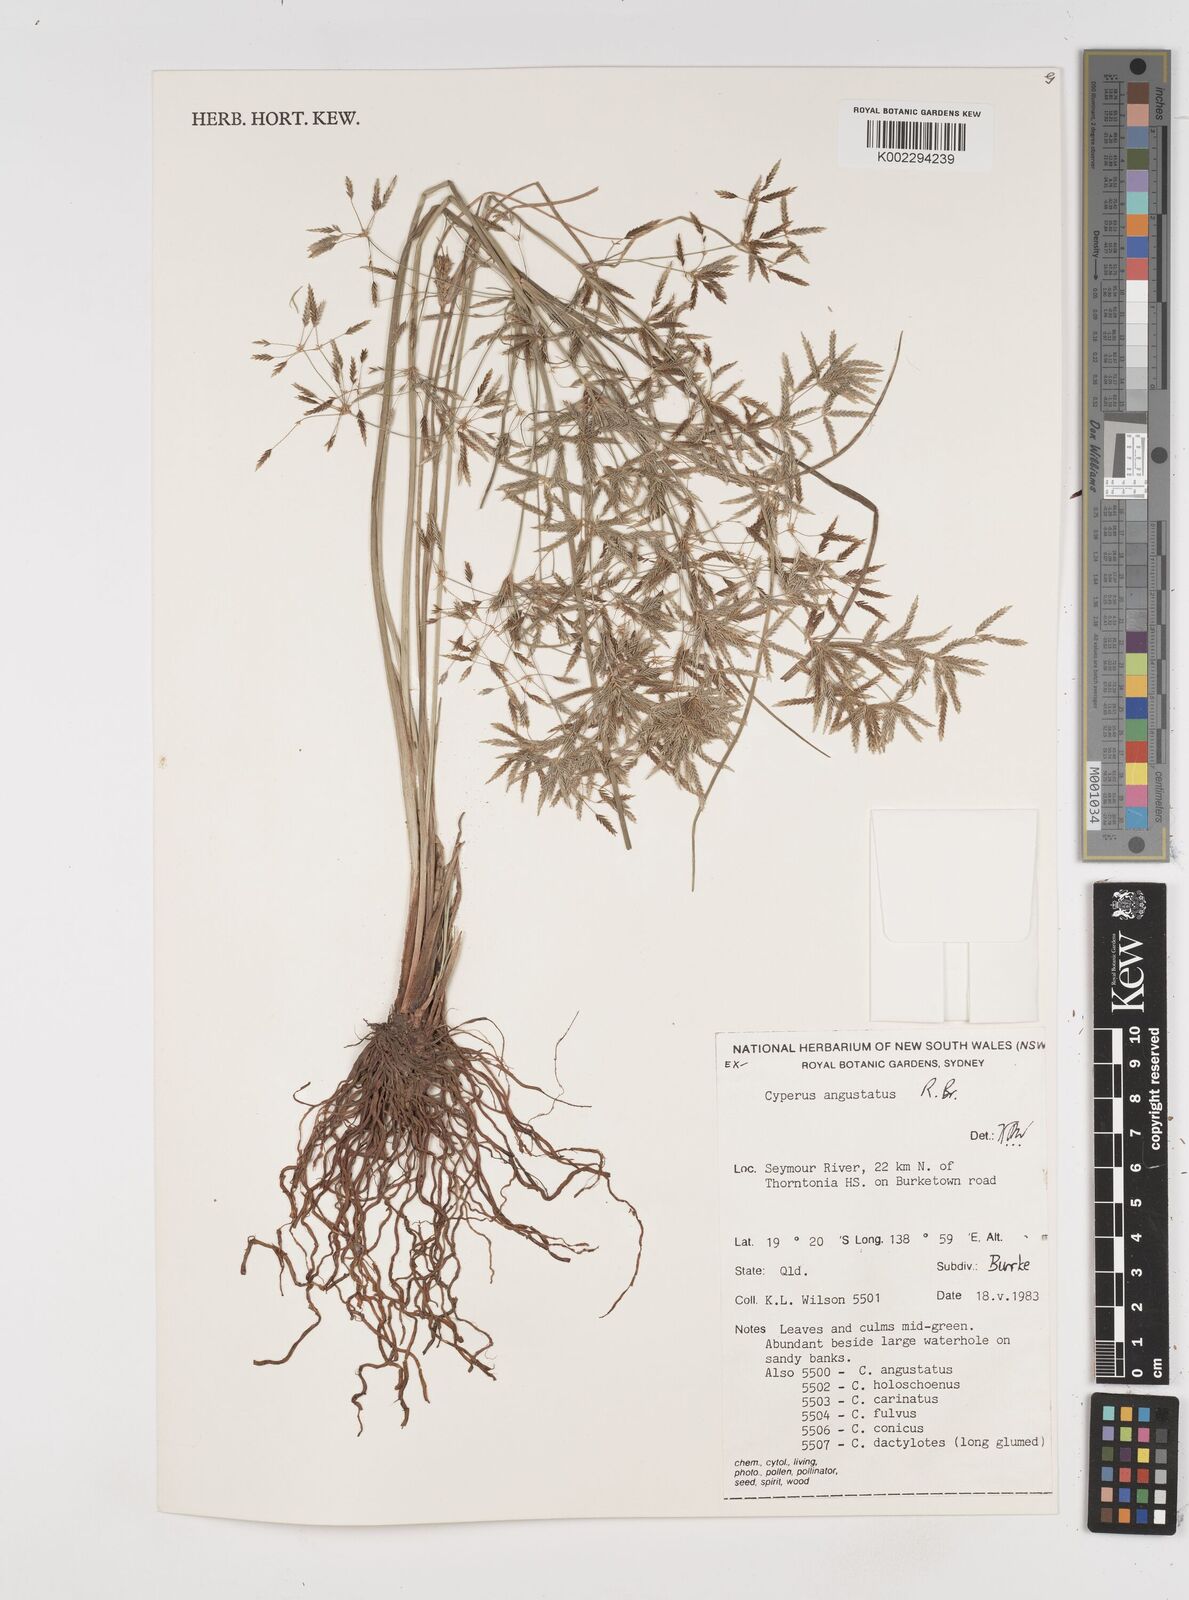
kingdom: Plantae
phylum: Tracheophyta
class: Liliopsida
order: Poales
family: Cyperaceae
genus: Cyperus
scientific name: Cyperus angustatus
